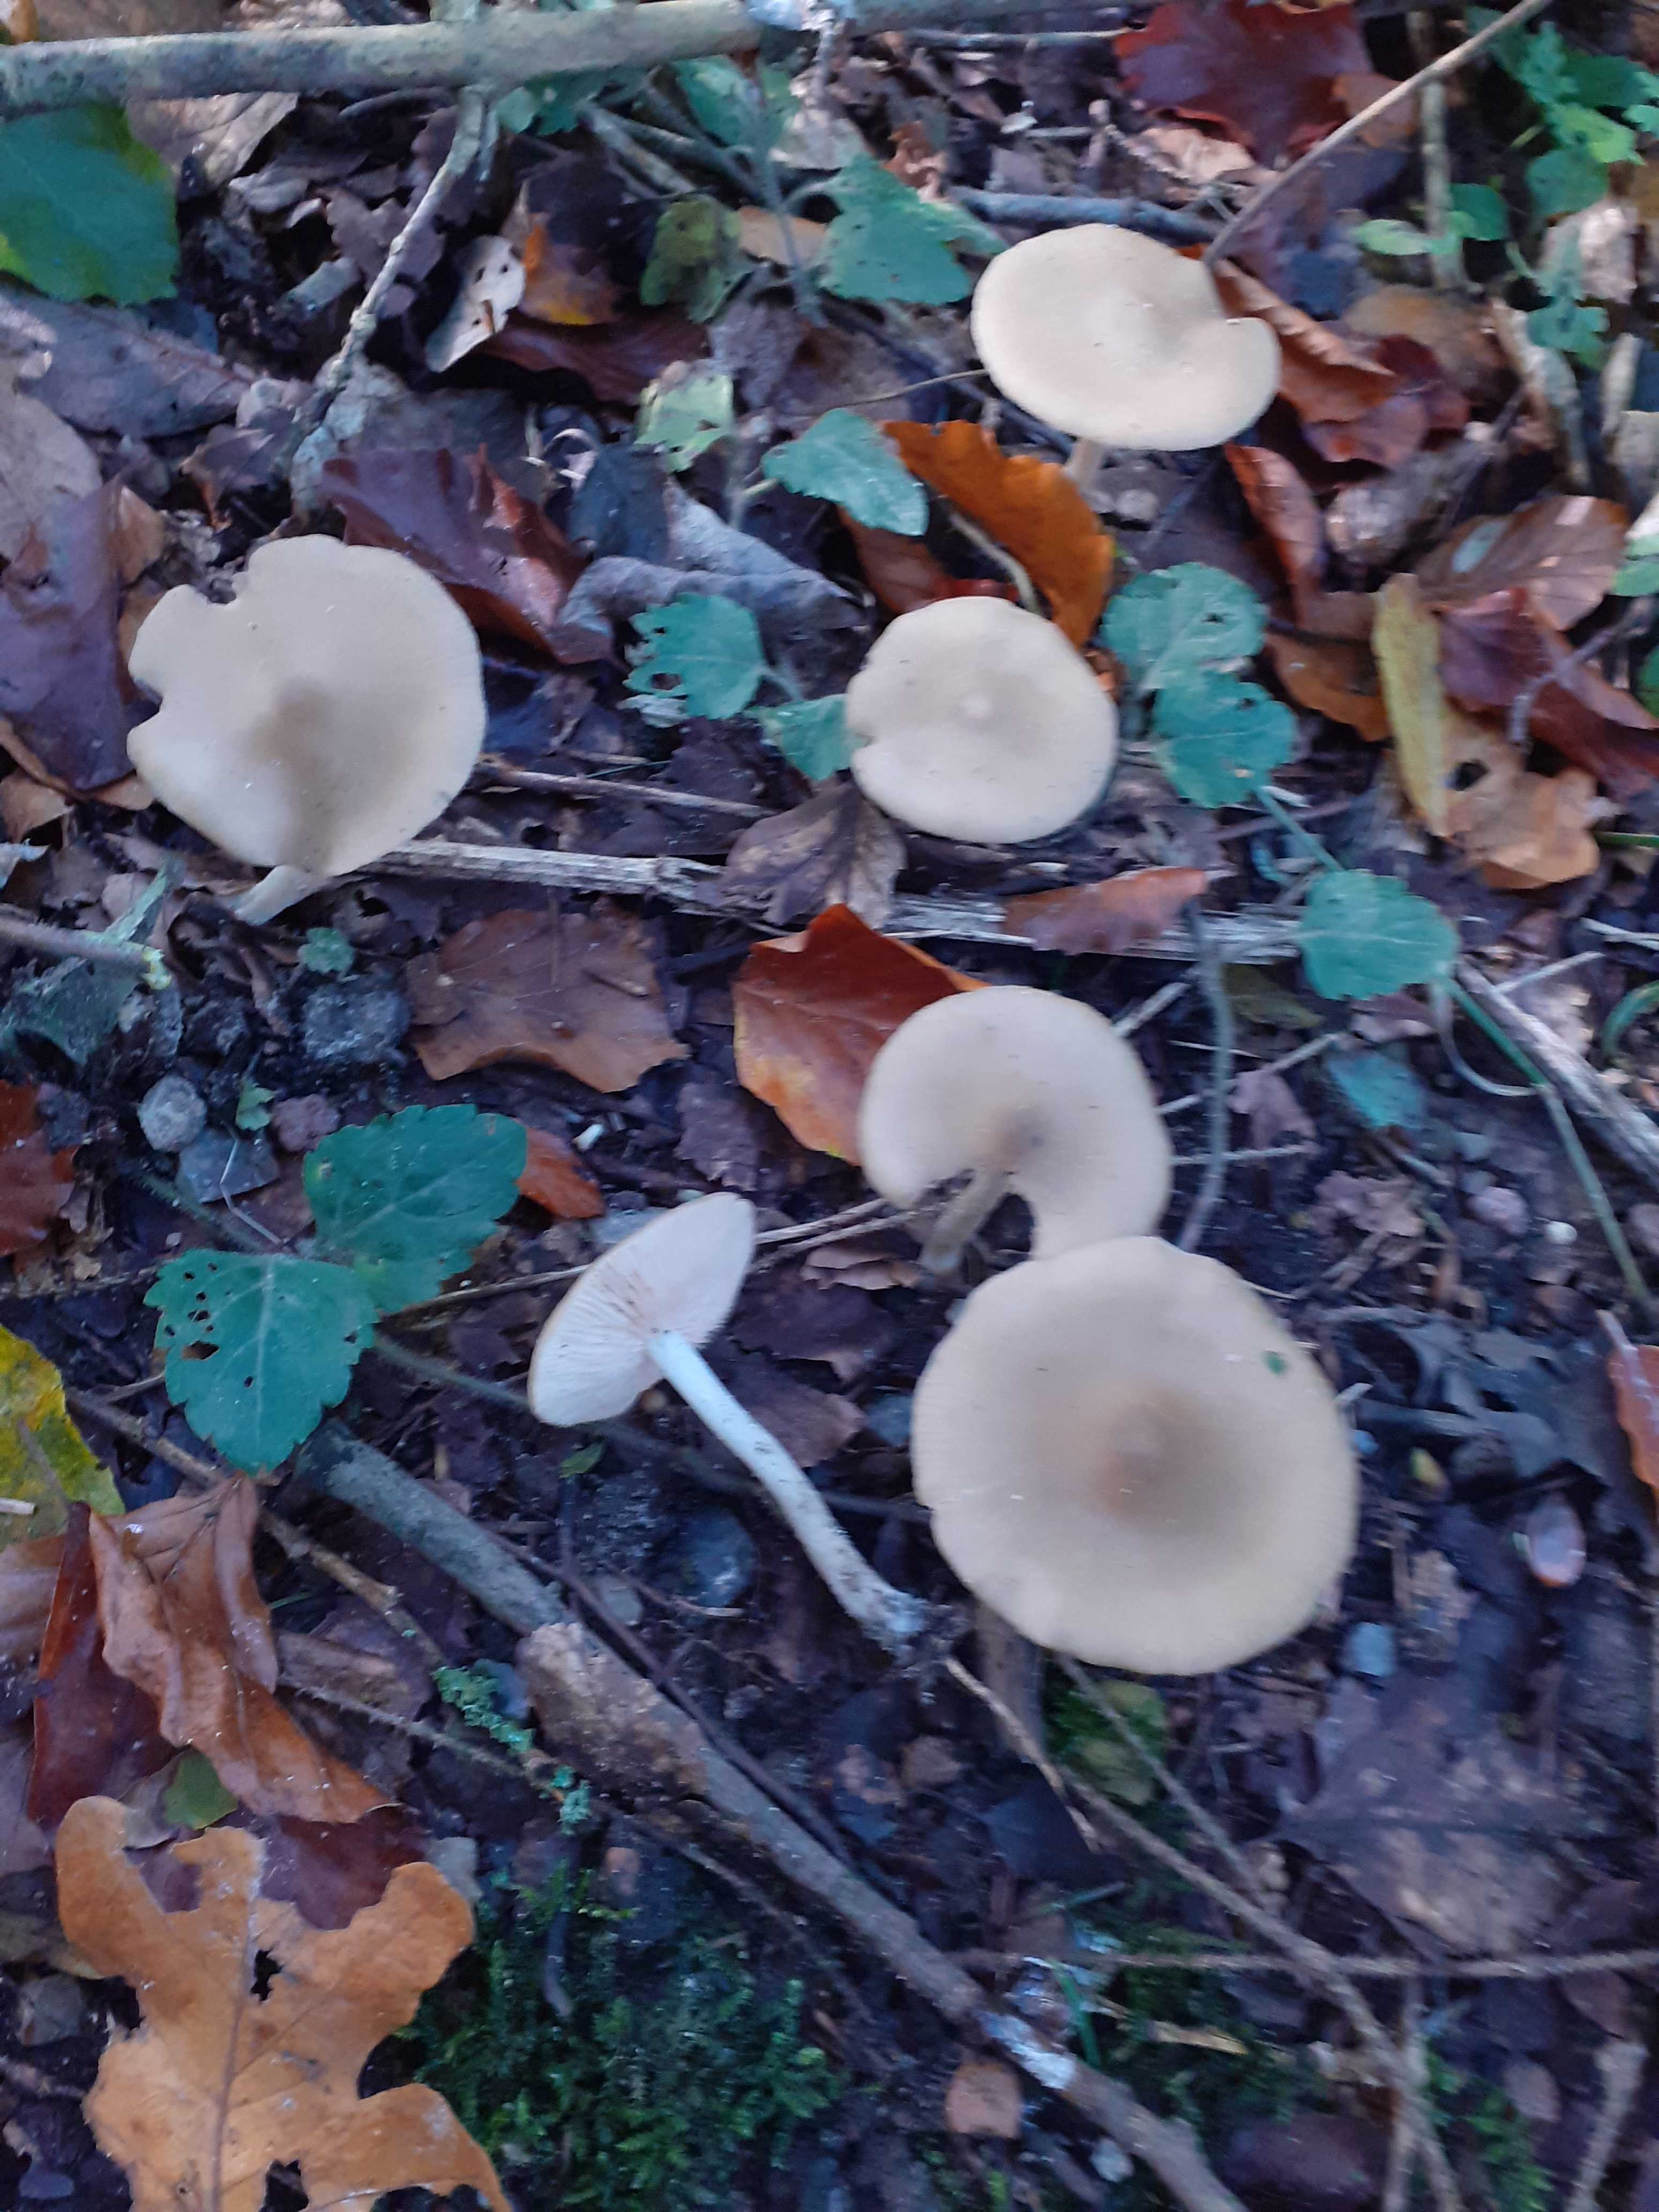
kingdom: Fungi
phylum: Basidiomycota
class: Agaricomycetes
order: Agaricales
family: Entolomataceae
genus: Entoloma
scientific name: Entoloma sericatum
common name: rank rødblad
